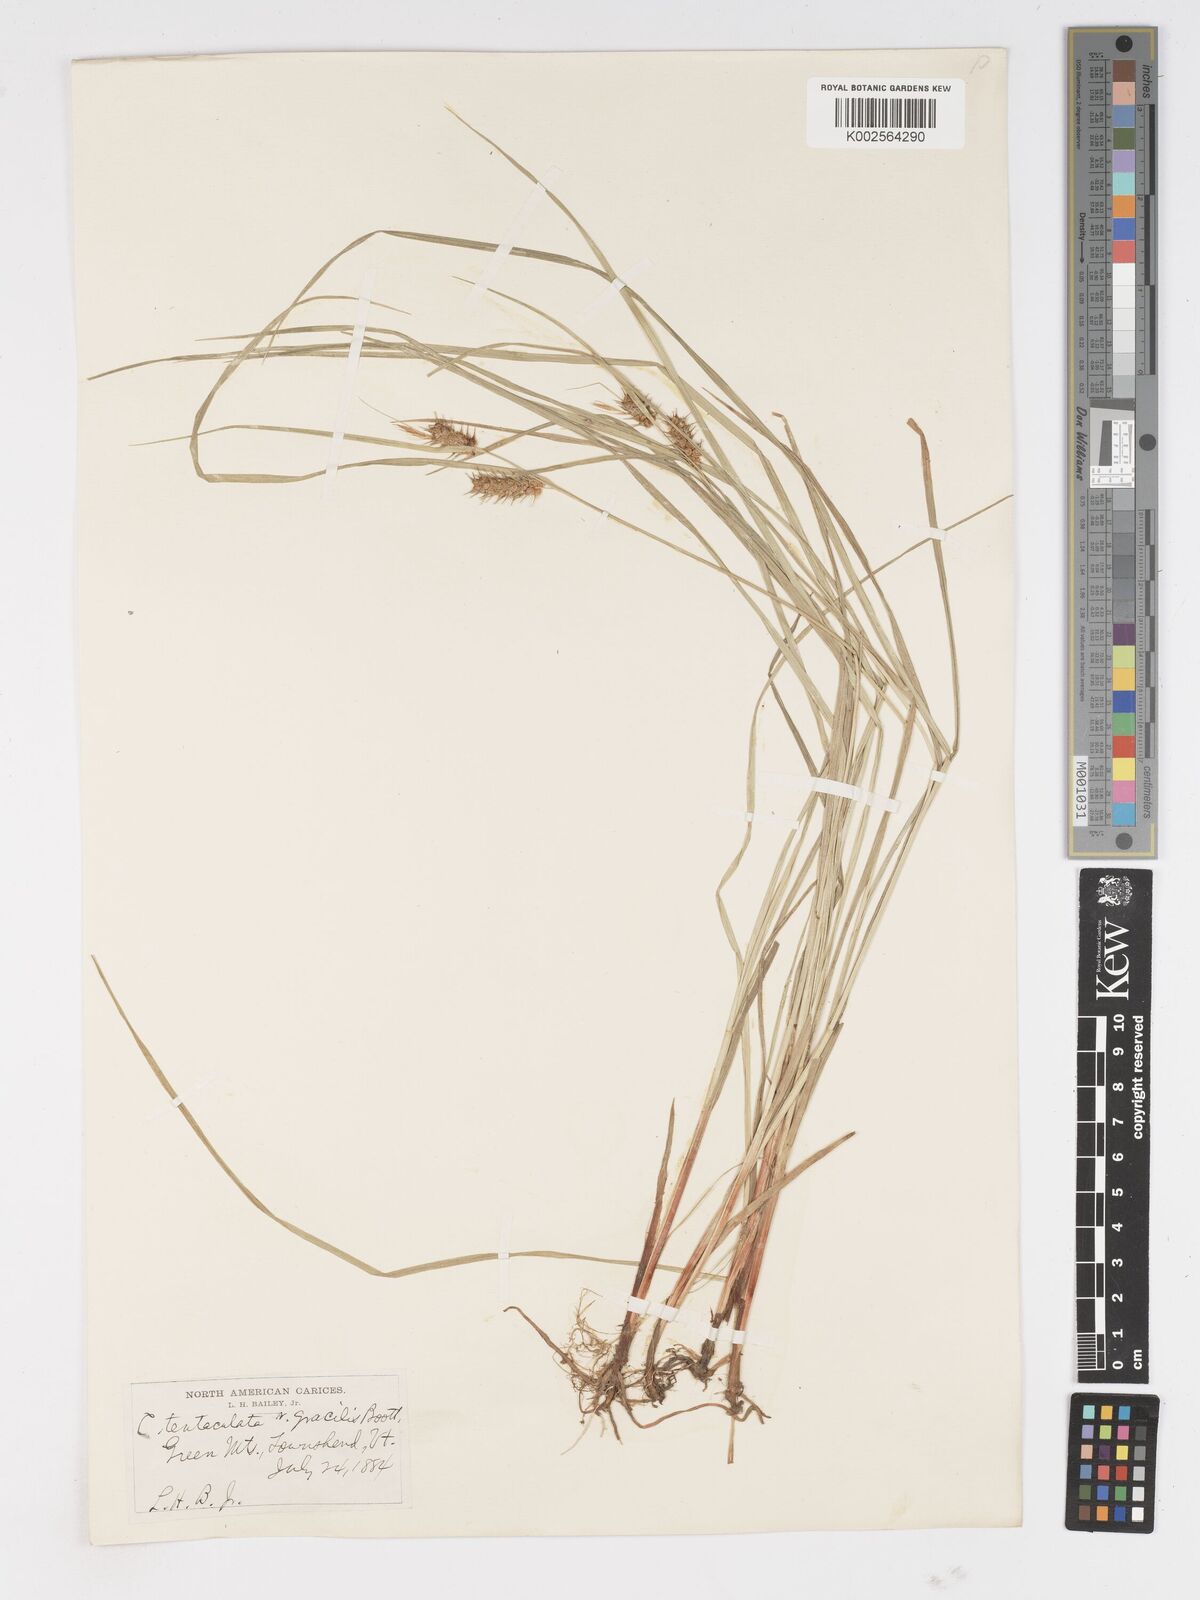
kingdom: Plantae
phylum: Tracheophyta
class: Liliopsida
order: Poales
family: Cyperaceae
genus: Carex
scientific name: Carex lurida
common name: Sallow sedge
